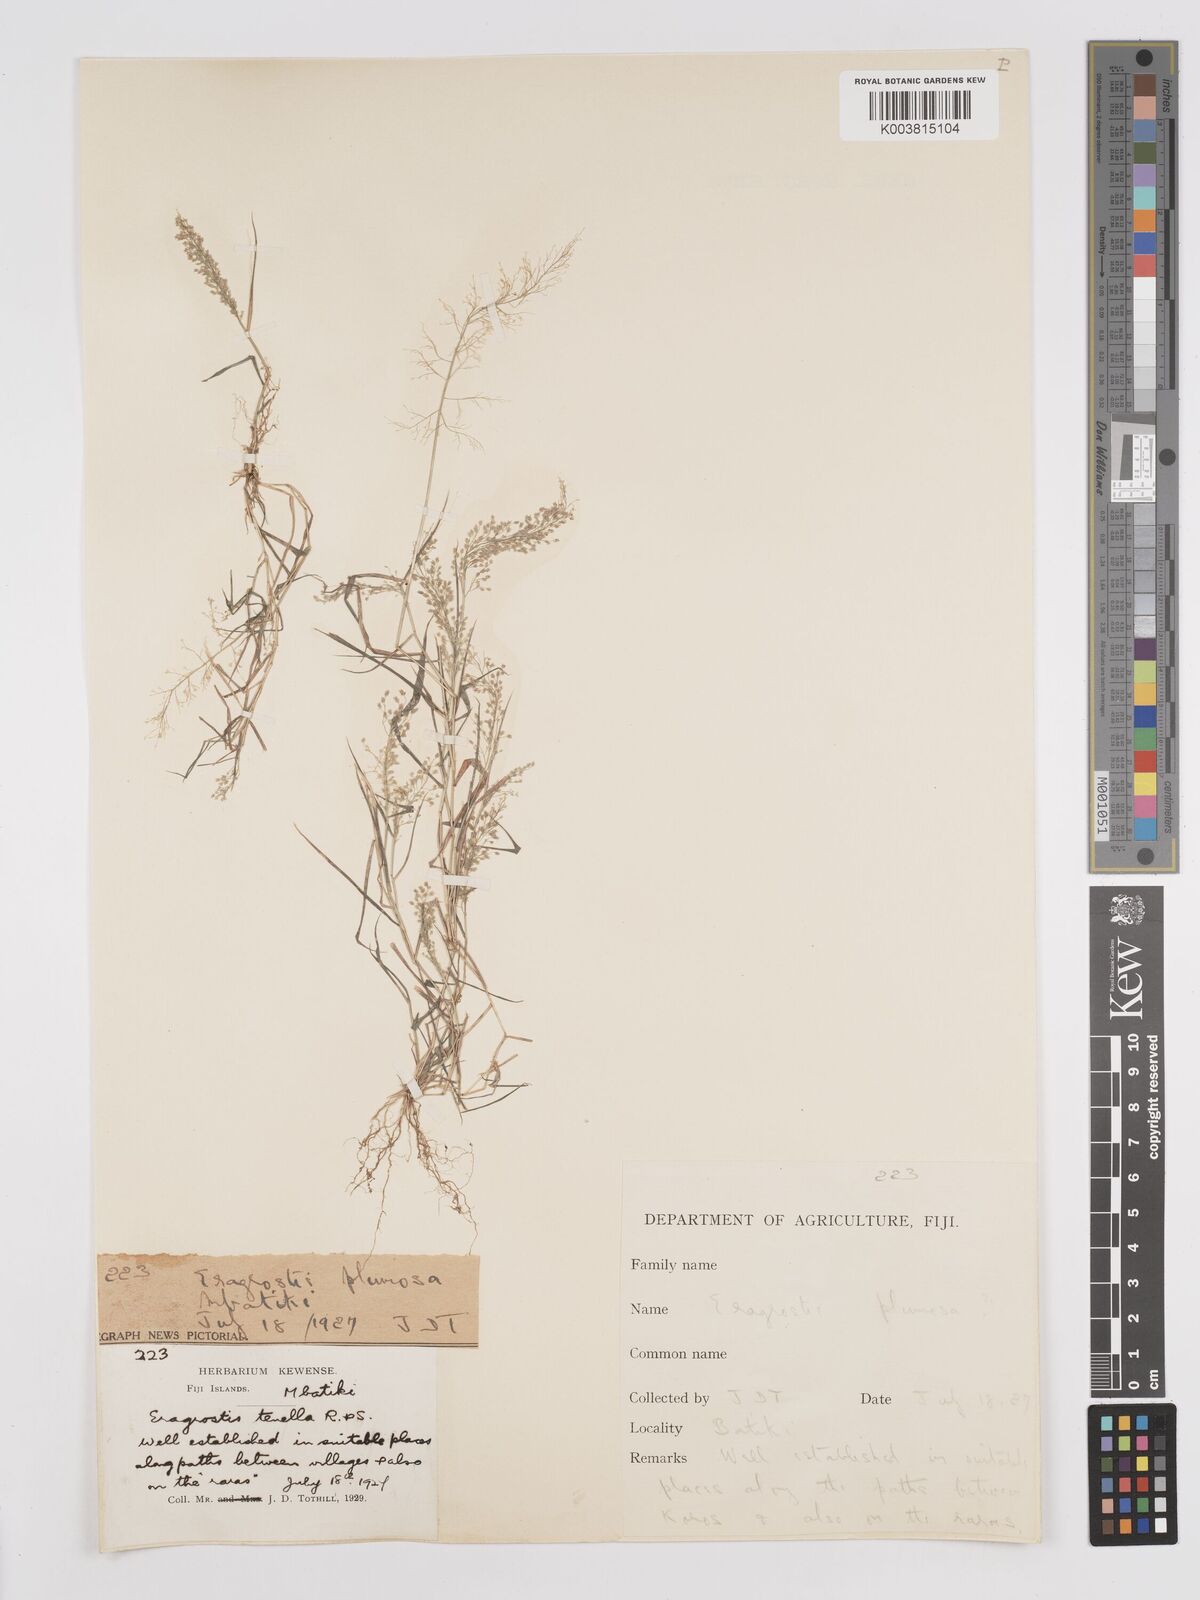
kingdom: Plantae
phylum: Tracheophyta
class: Liliopsida
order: Poales
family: Poaceae
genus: Eragrostis
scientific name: Eragrostis tenella
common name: Japanese lovegrass
